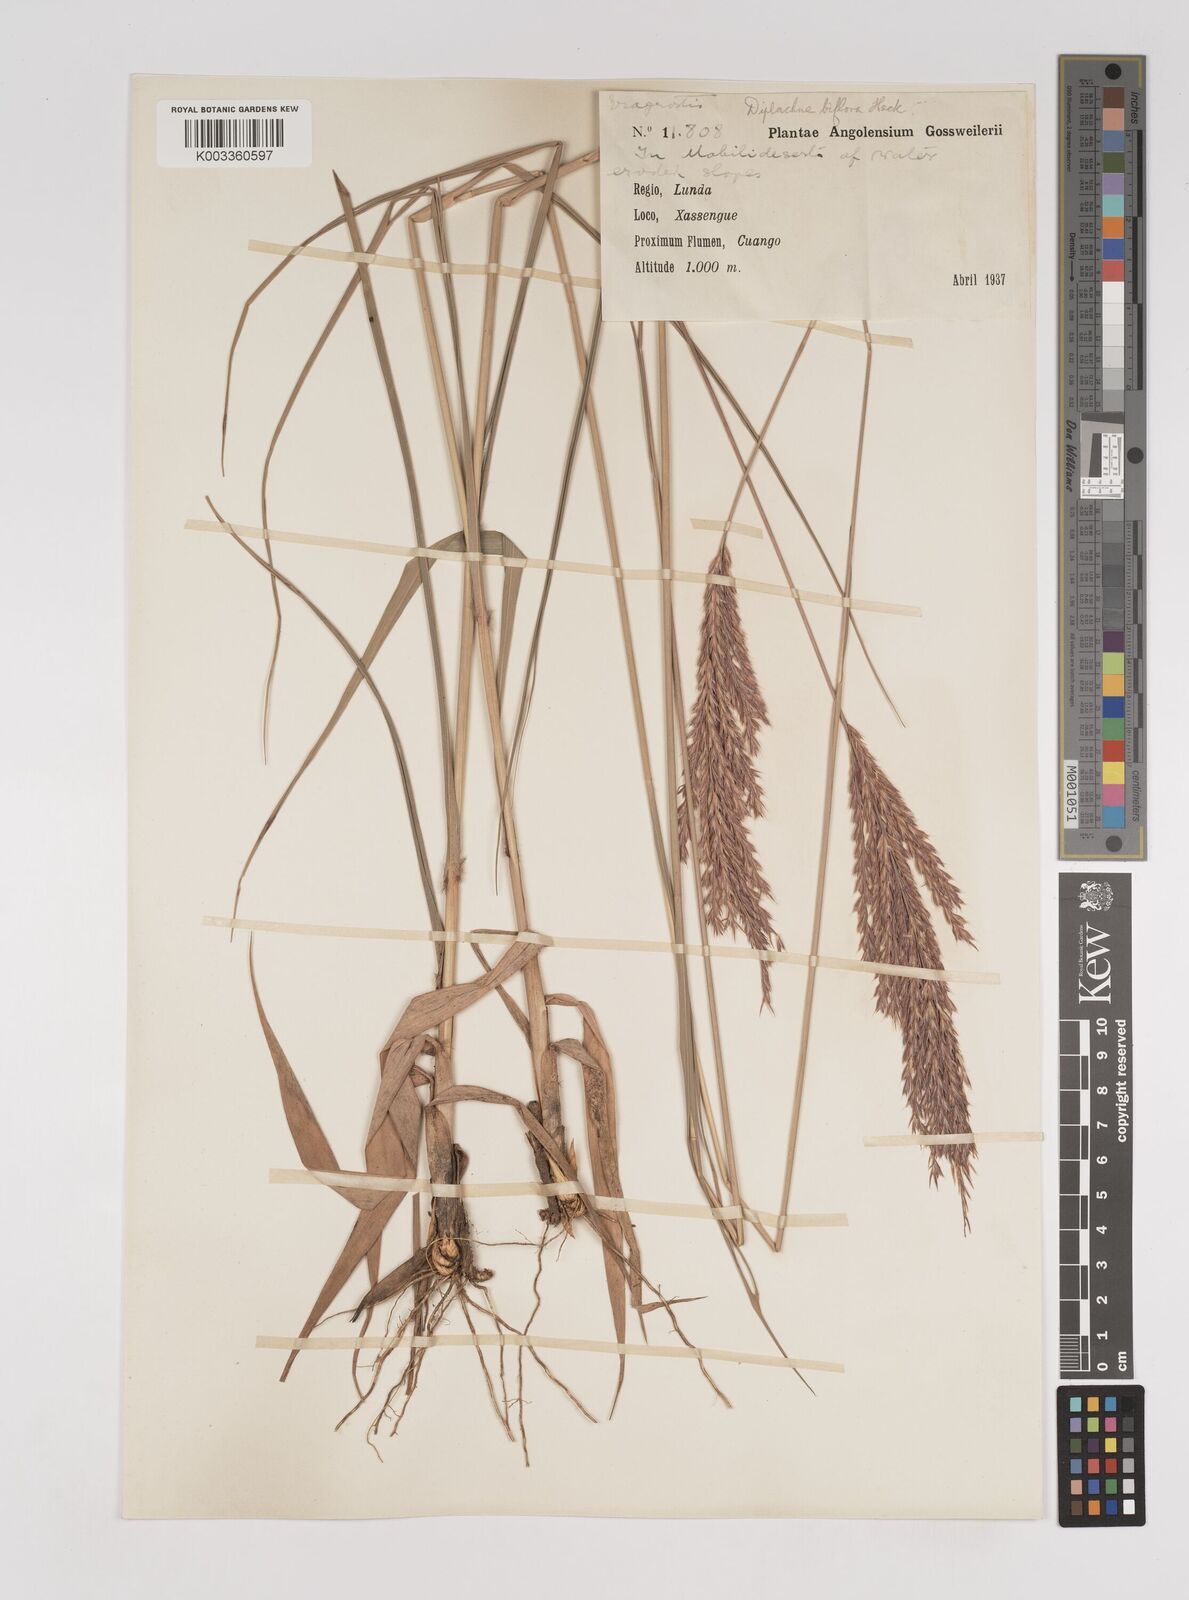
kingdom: Plantae
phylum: Tracheophyta
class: Liliopsida
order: Poales
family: Poaceae
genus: Bewsia
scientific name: Bewsia biflora
